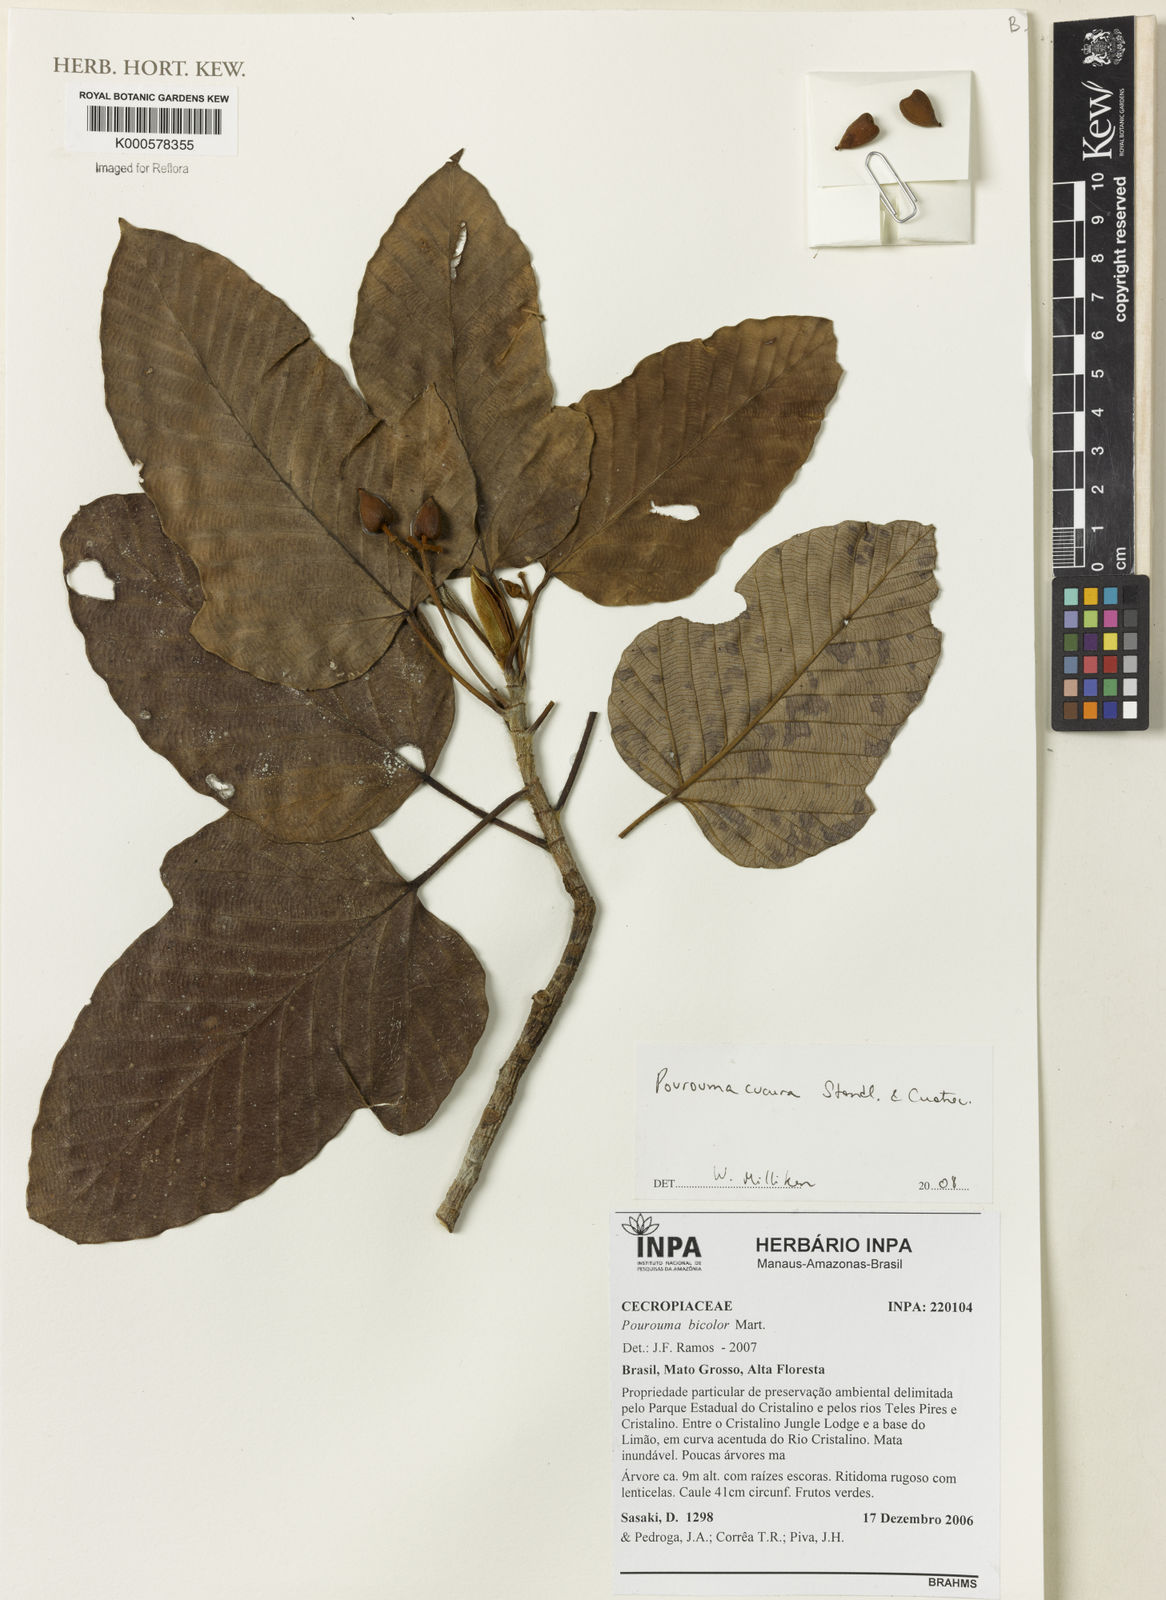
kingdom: Plantae
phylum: Tracheophyta
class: Magnoliopsida
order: Rosales
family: Urticaceae
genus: Pourouma
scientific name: Pourouma cucura
